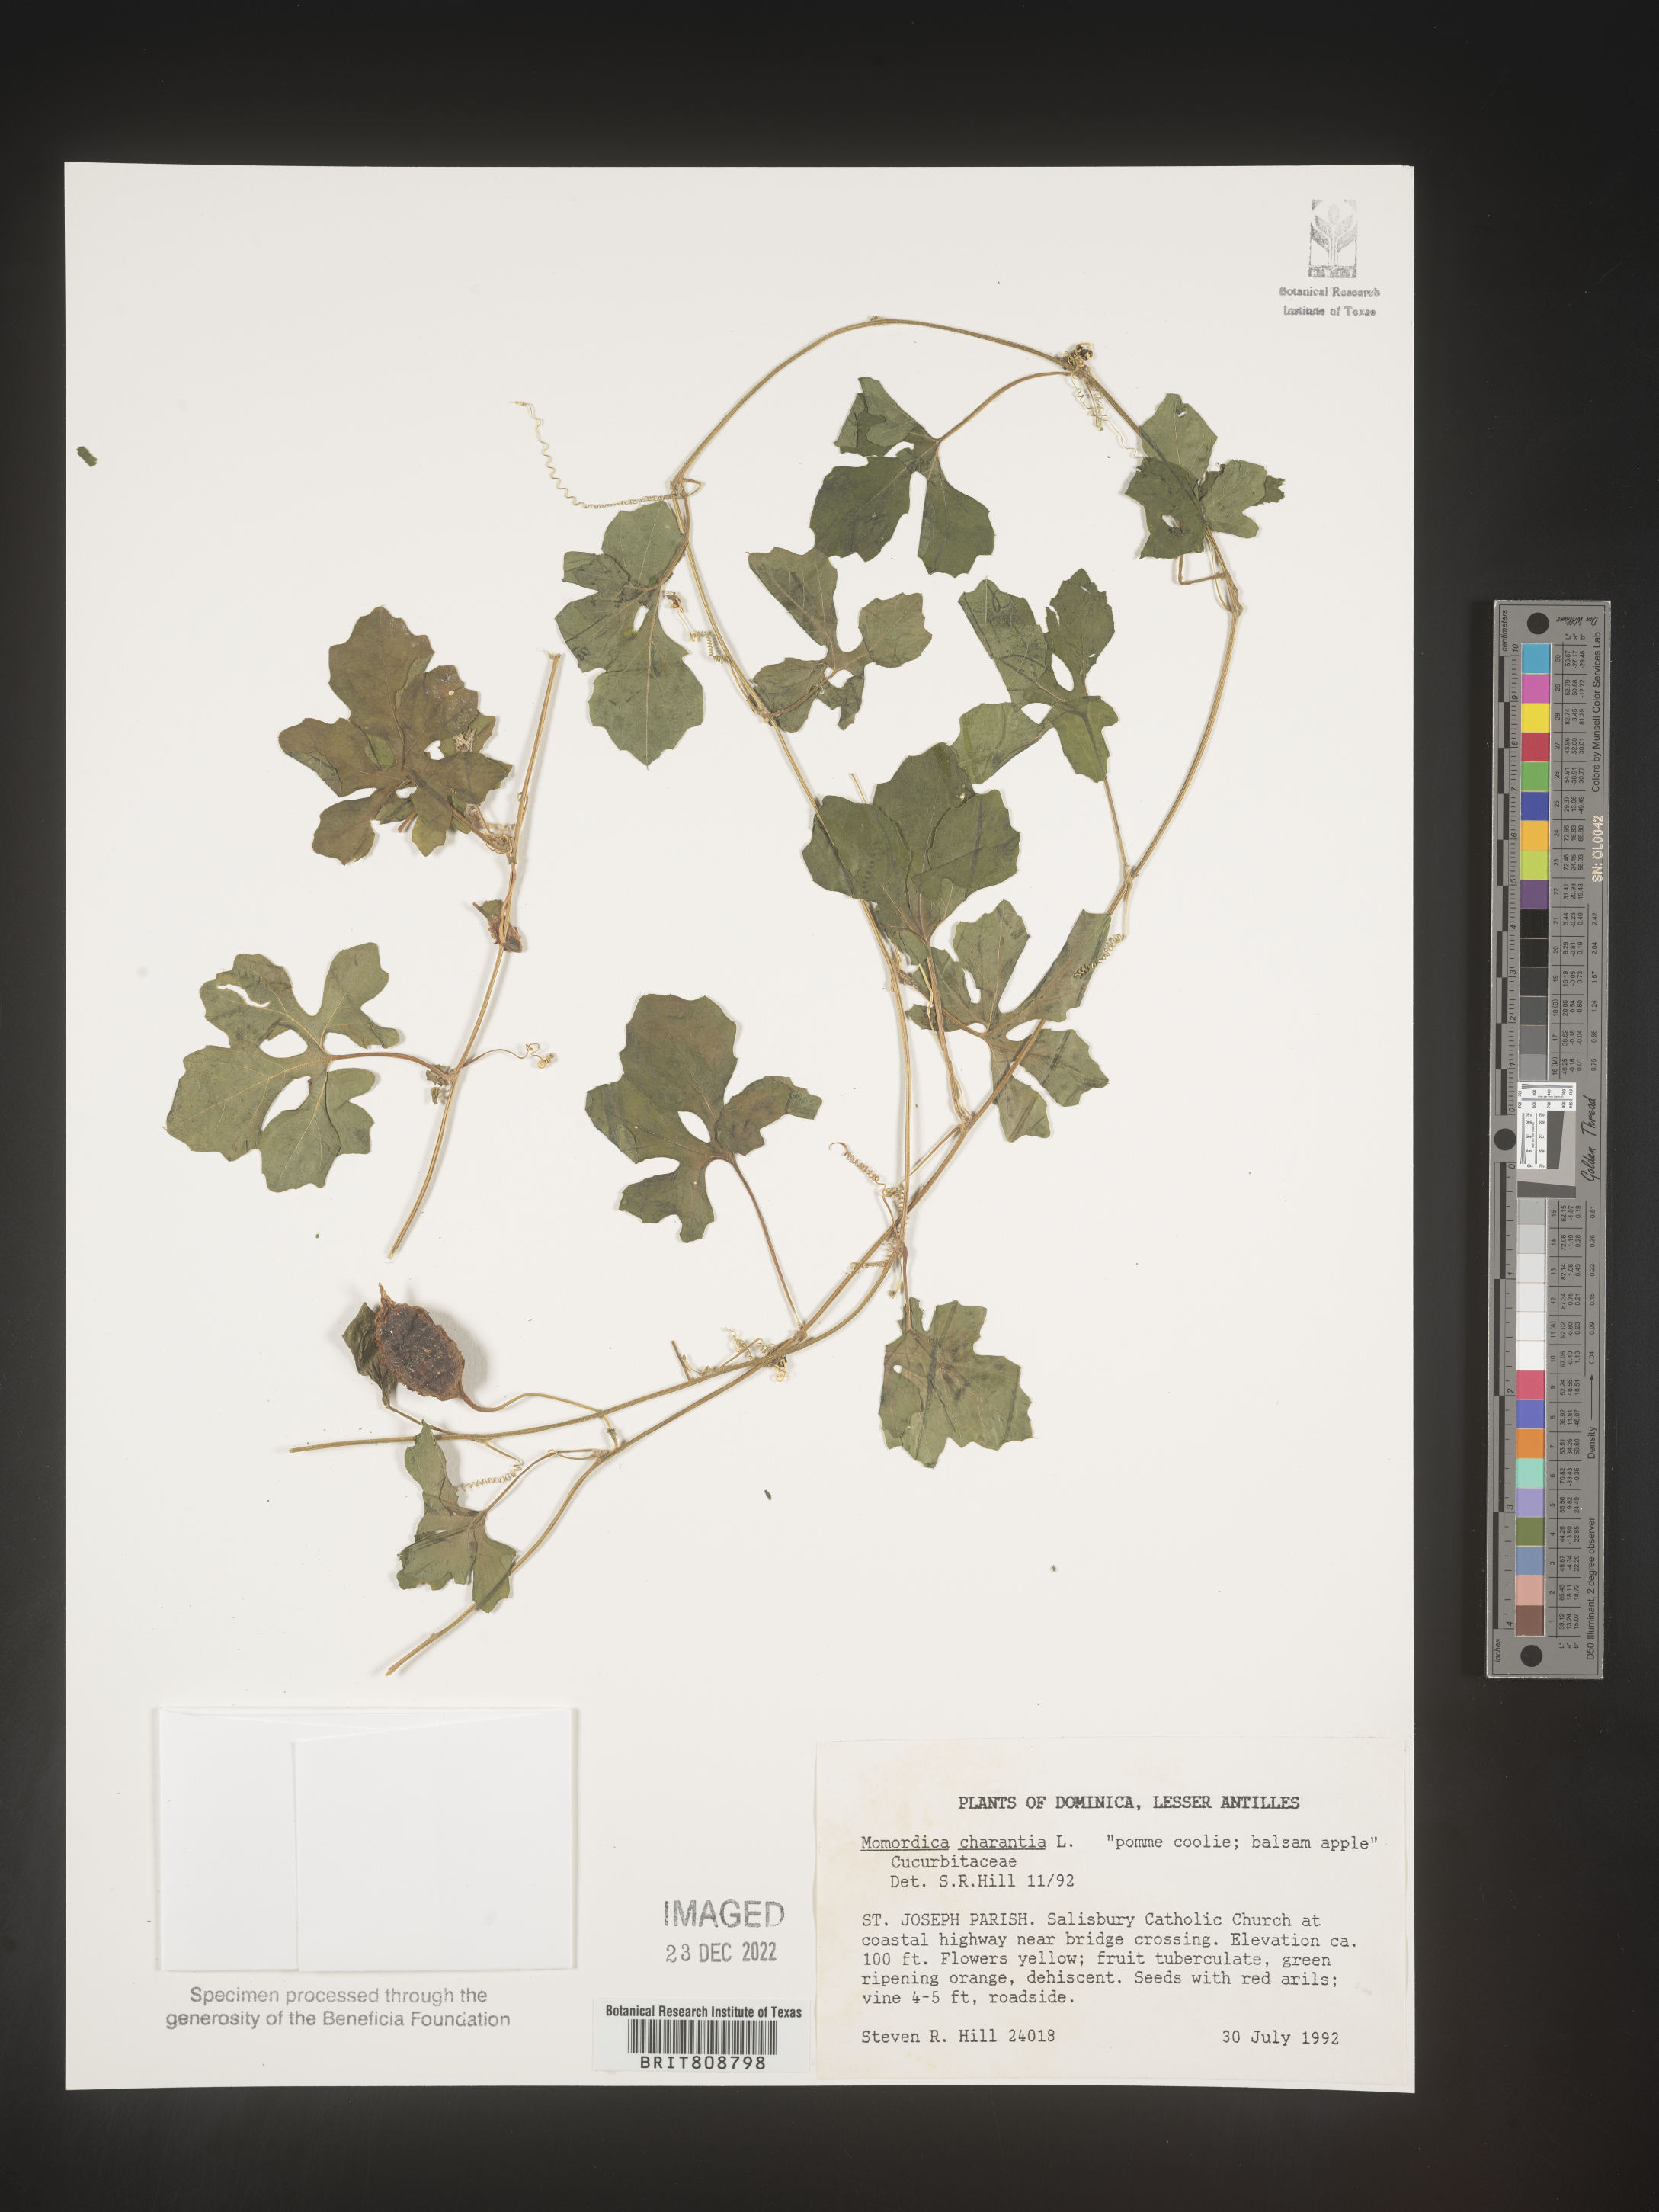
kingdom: Plantae
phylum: Tracheophyta
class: Magnoliopsida
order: Cucurbitales
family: Cucurbitaceae
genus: Momordica
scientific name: Momordica
